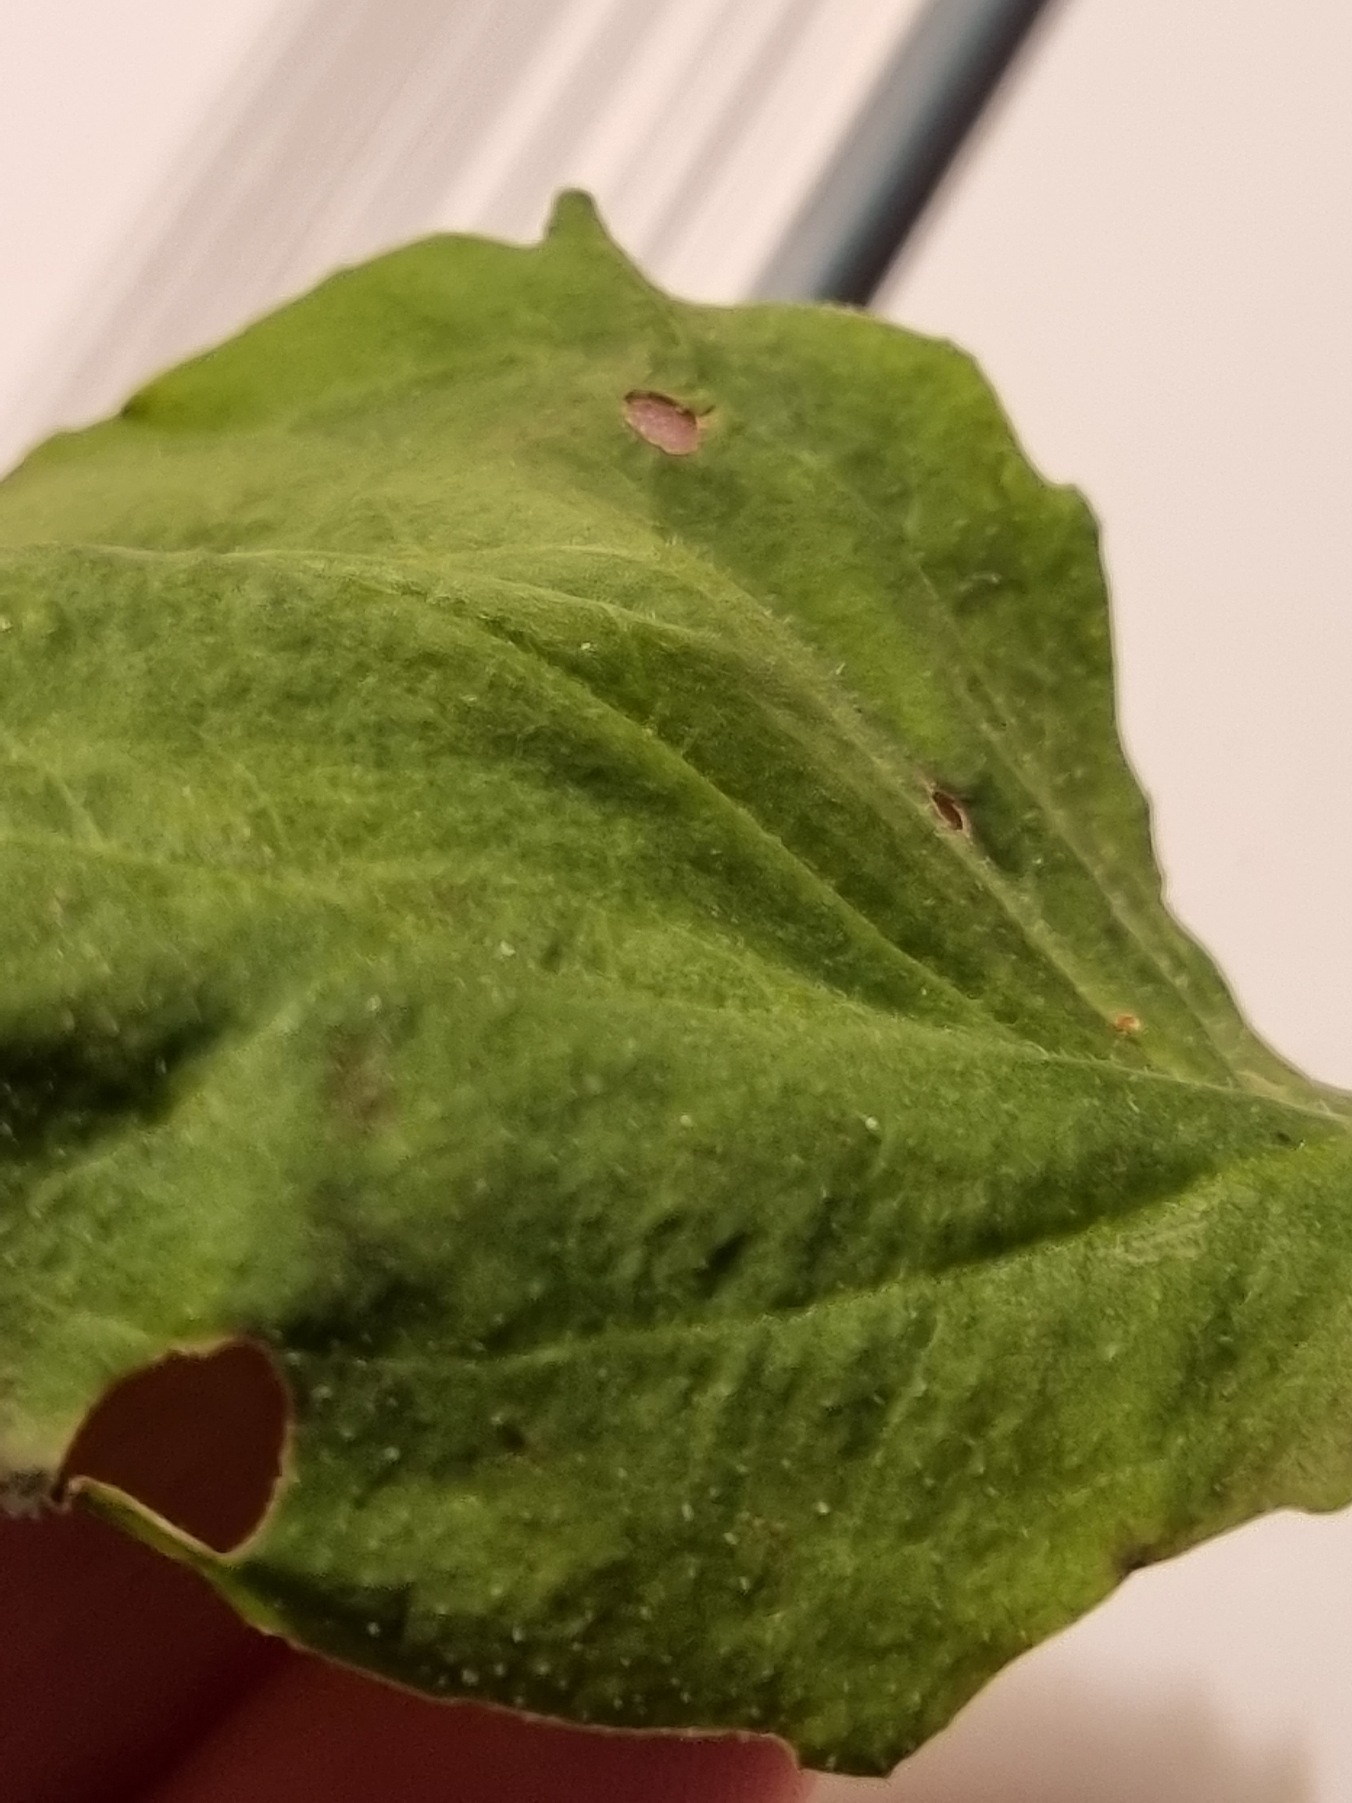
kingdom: Plantae
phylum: Tracheophyta
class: Magnoliopsida
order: Lamiales
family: Plantaginaceae
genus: Plantago
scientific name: Plantago major
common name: Glat vejbred
